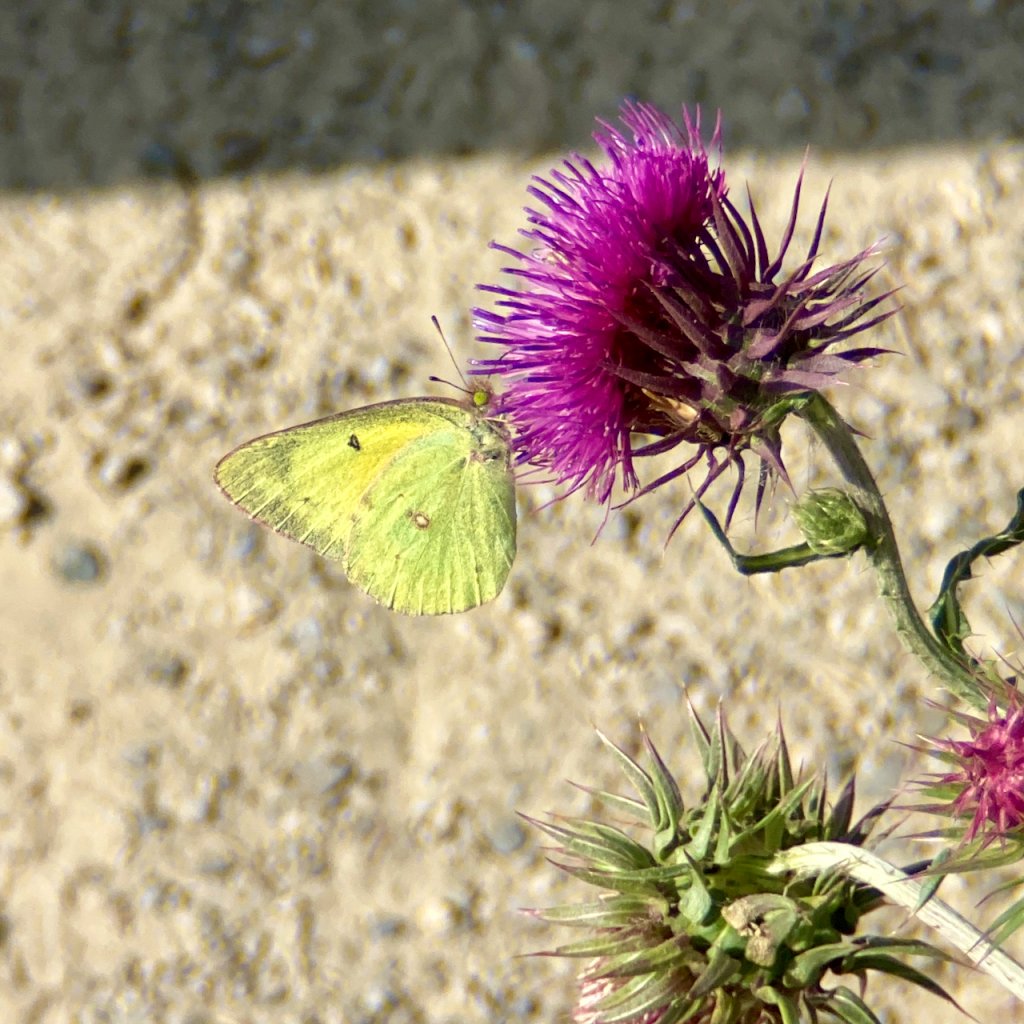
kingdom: Animalia
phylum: Arthropoda
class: Insecta
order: Lepidoptera
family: Pieridae
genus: Colias
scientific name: Colias
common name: Clouded Yellows
